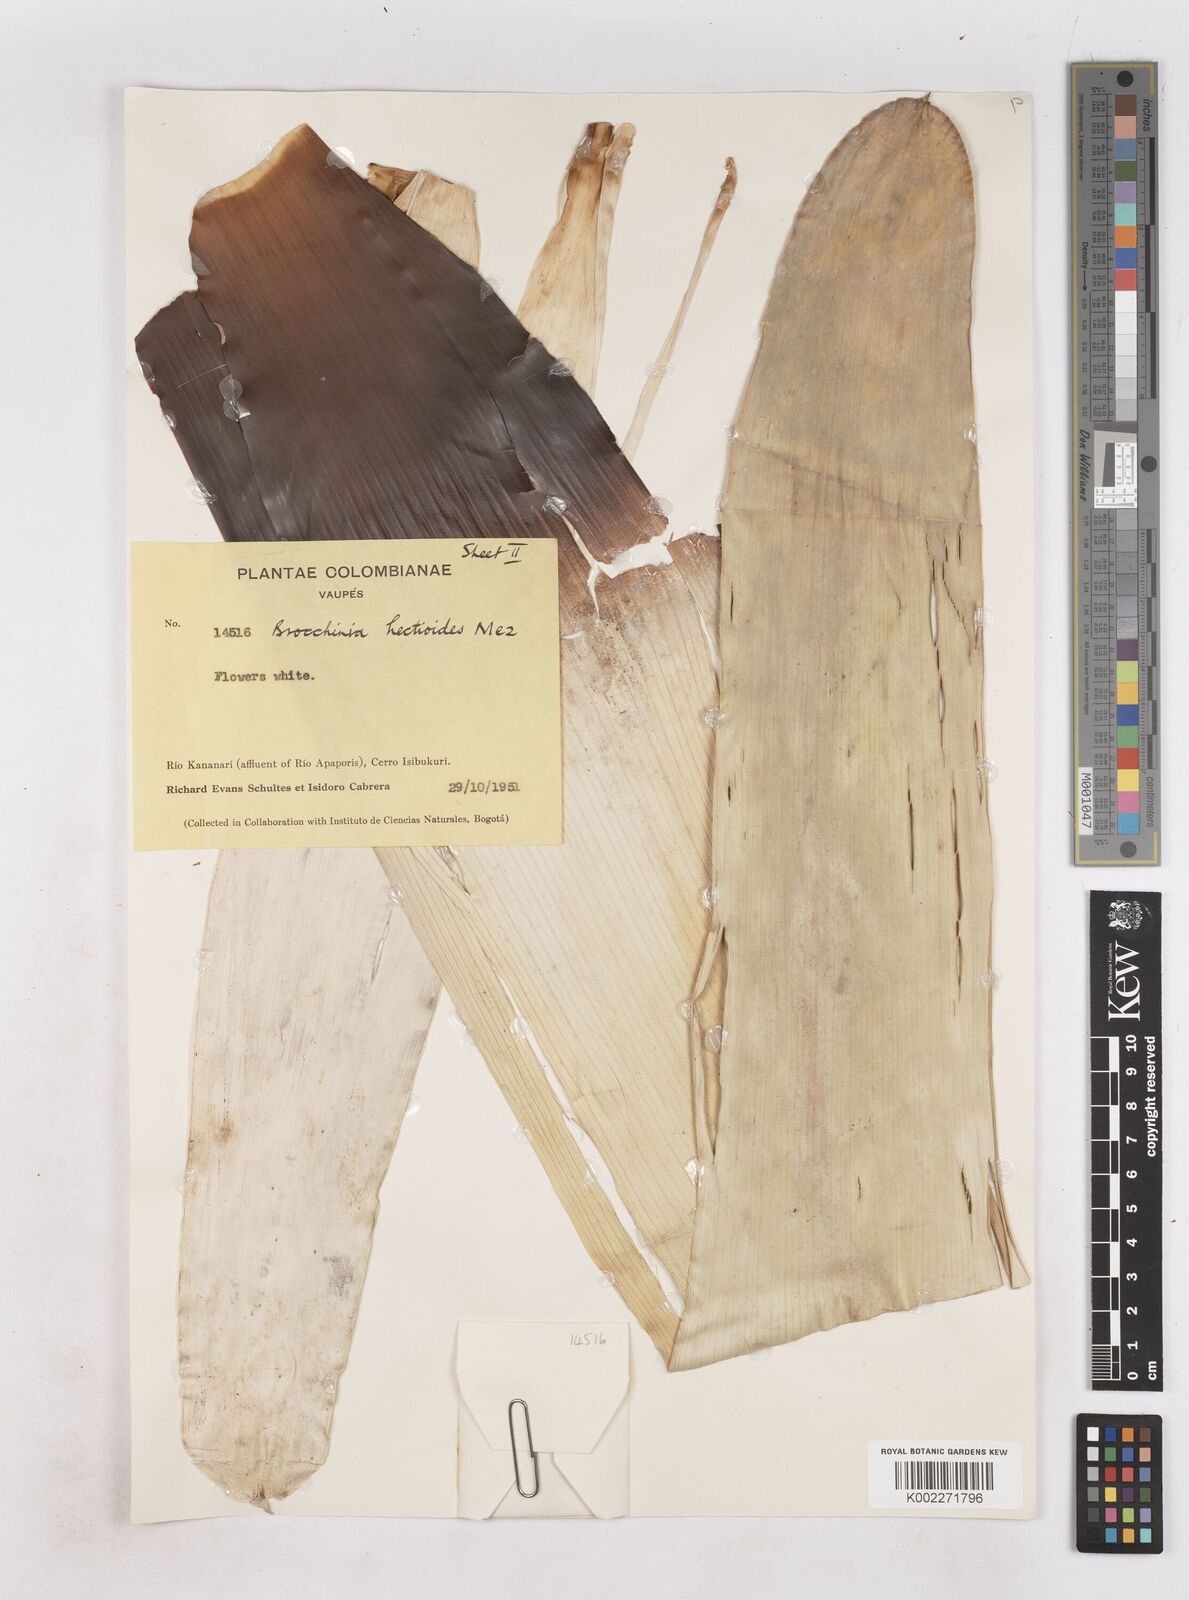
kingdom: Plantae
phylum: Tracheophyta
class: Liliopsida
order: Poales
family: Bromeliaceae
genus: Brocchinia
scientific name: Brocchinia hechtioides
